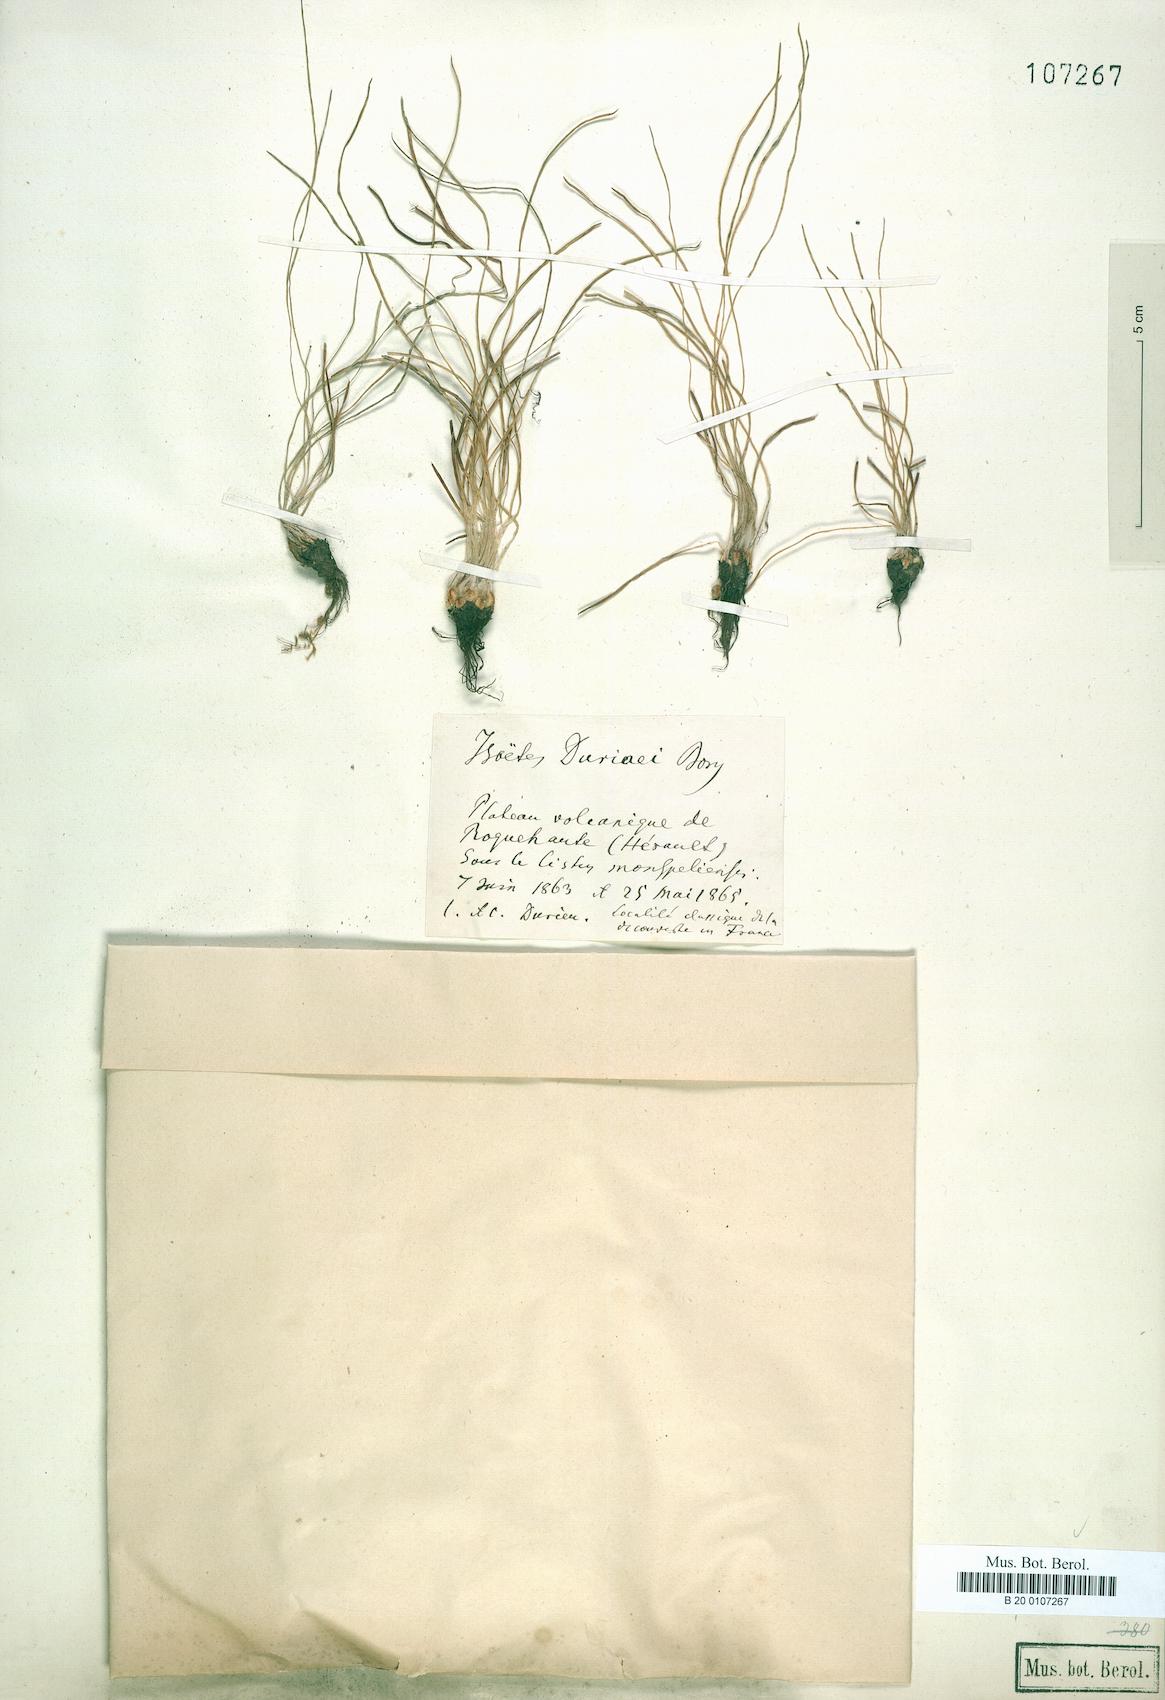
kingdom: Plantae
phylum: Tracheophyta
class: Lycopodiopsida
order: Isoetales
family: Isoetaceae
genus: Isoetes
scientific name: Isoetes duriei
